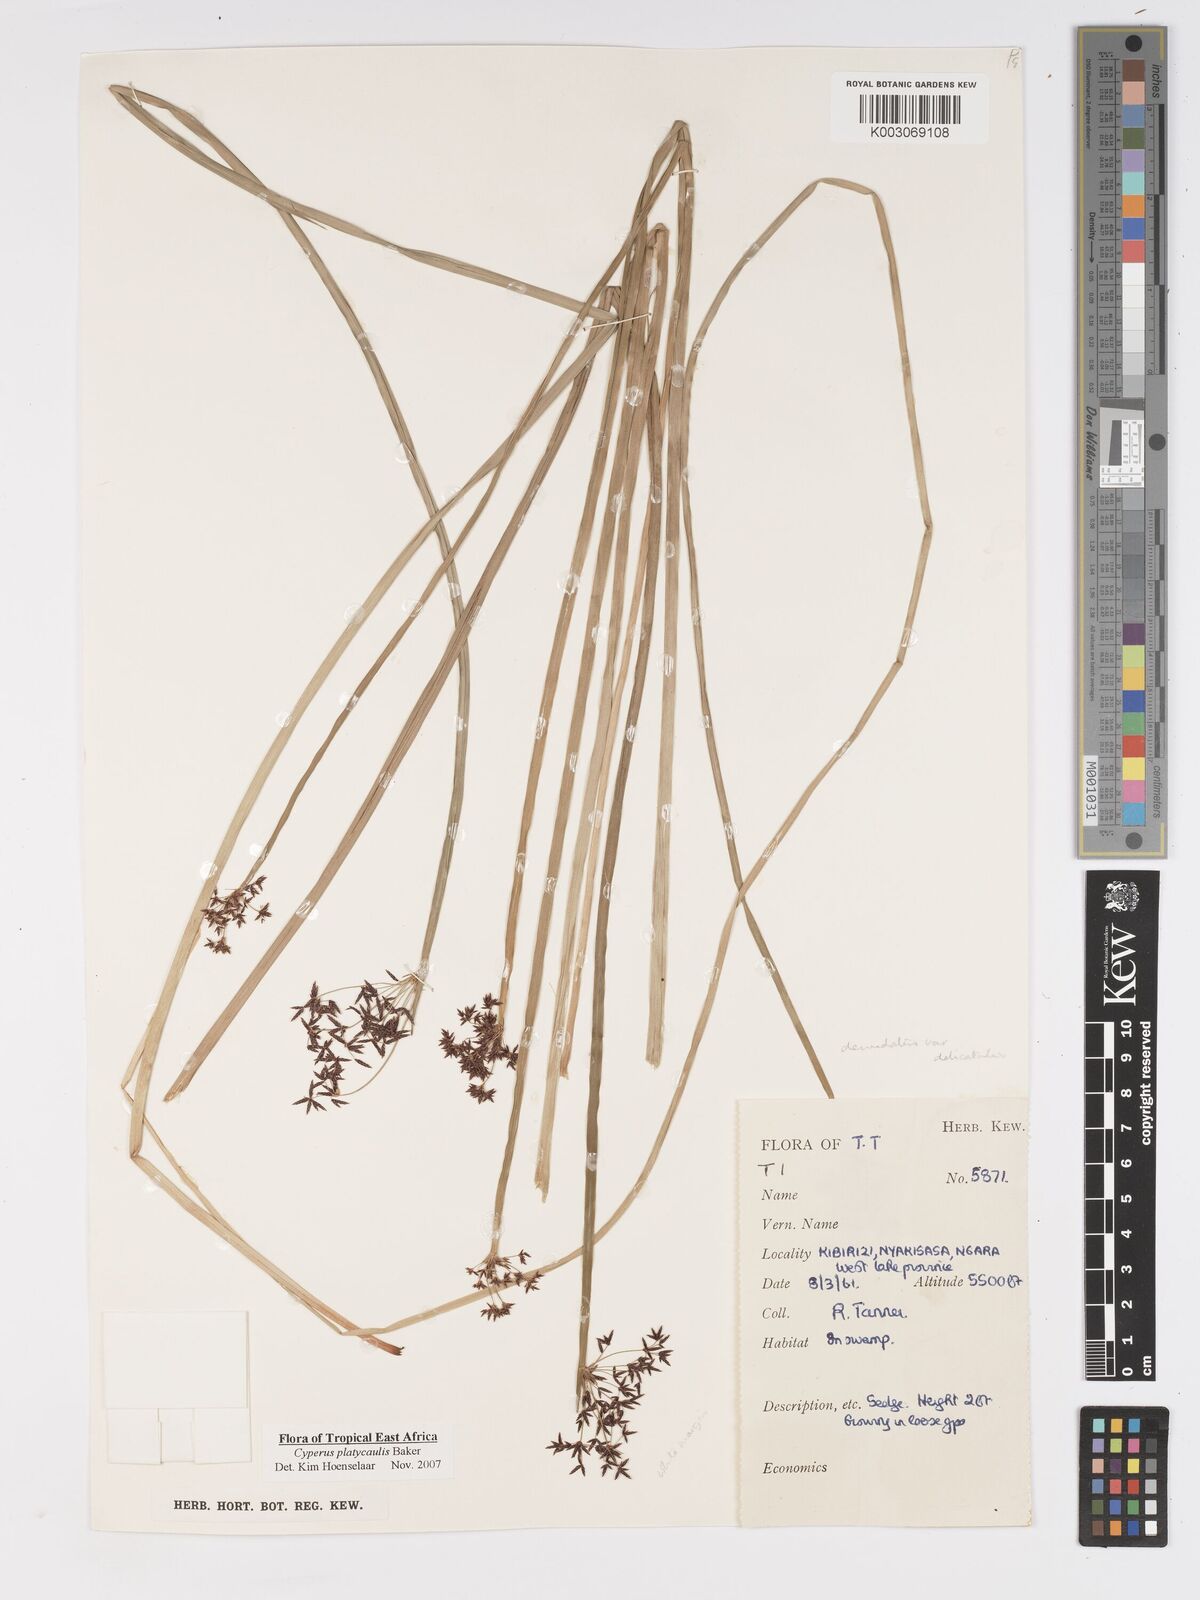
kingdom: Plantae
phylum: Tracheophyta
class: Liliopsida
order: Poales
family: Cyperaceae
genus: Cyperus
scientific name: Cyperus platycaulis
